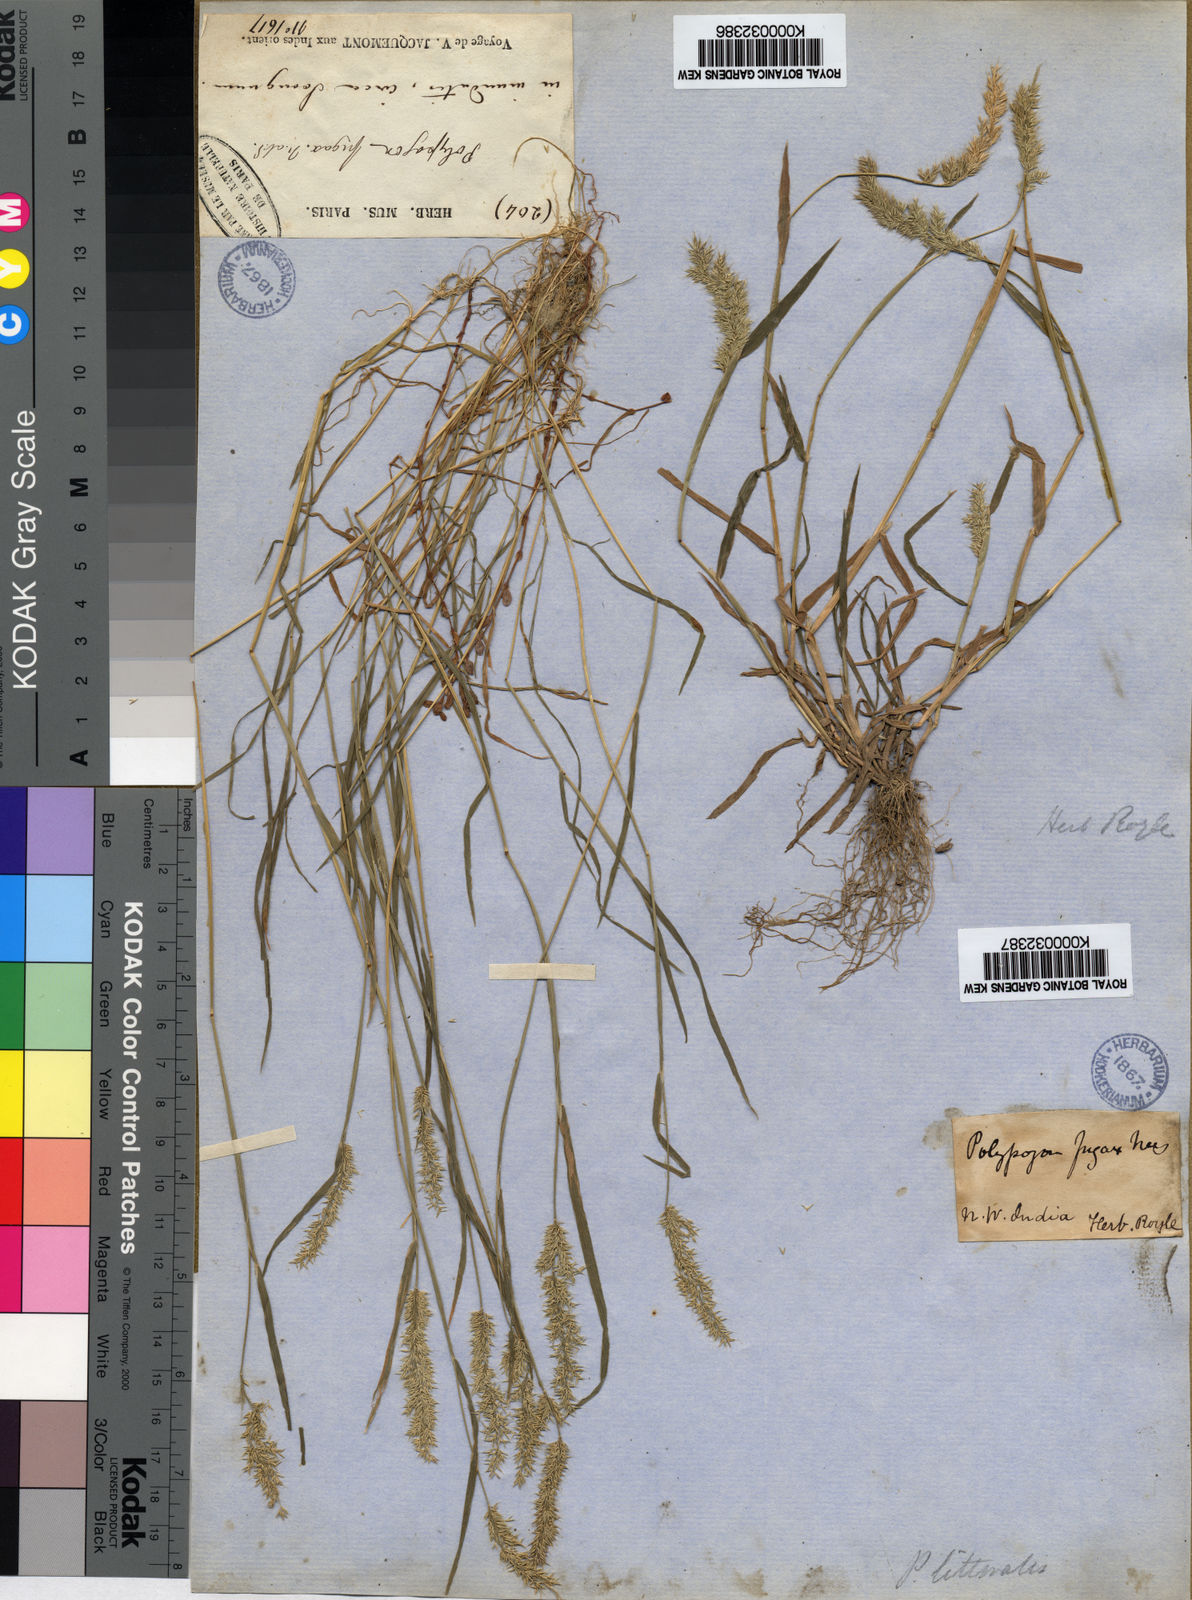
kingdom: Plantae
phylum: Tracheophyta
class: Liliopsida
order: Poales
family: Poaceae
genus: Polypogon
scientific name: Polypogon fugax
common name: Asia minor bluegrass
